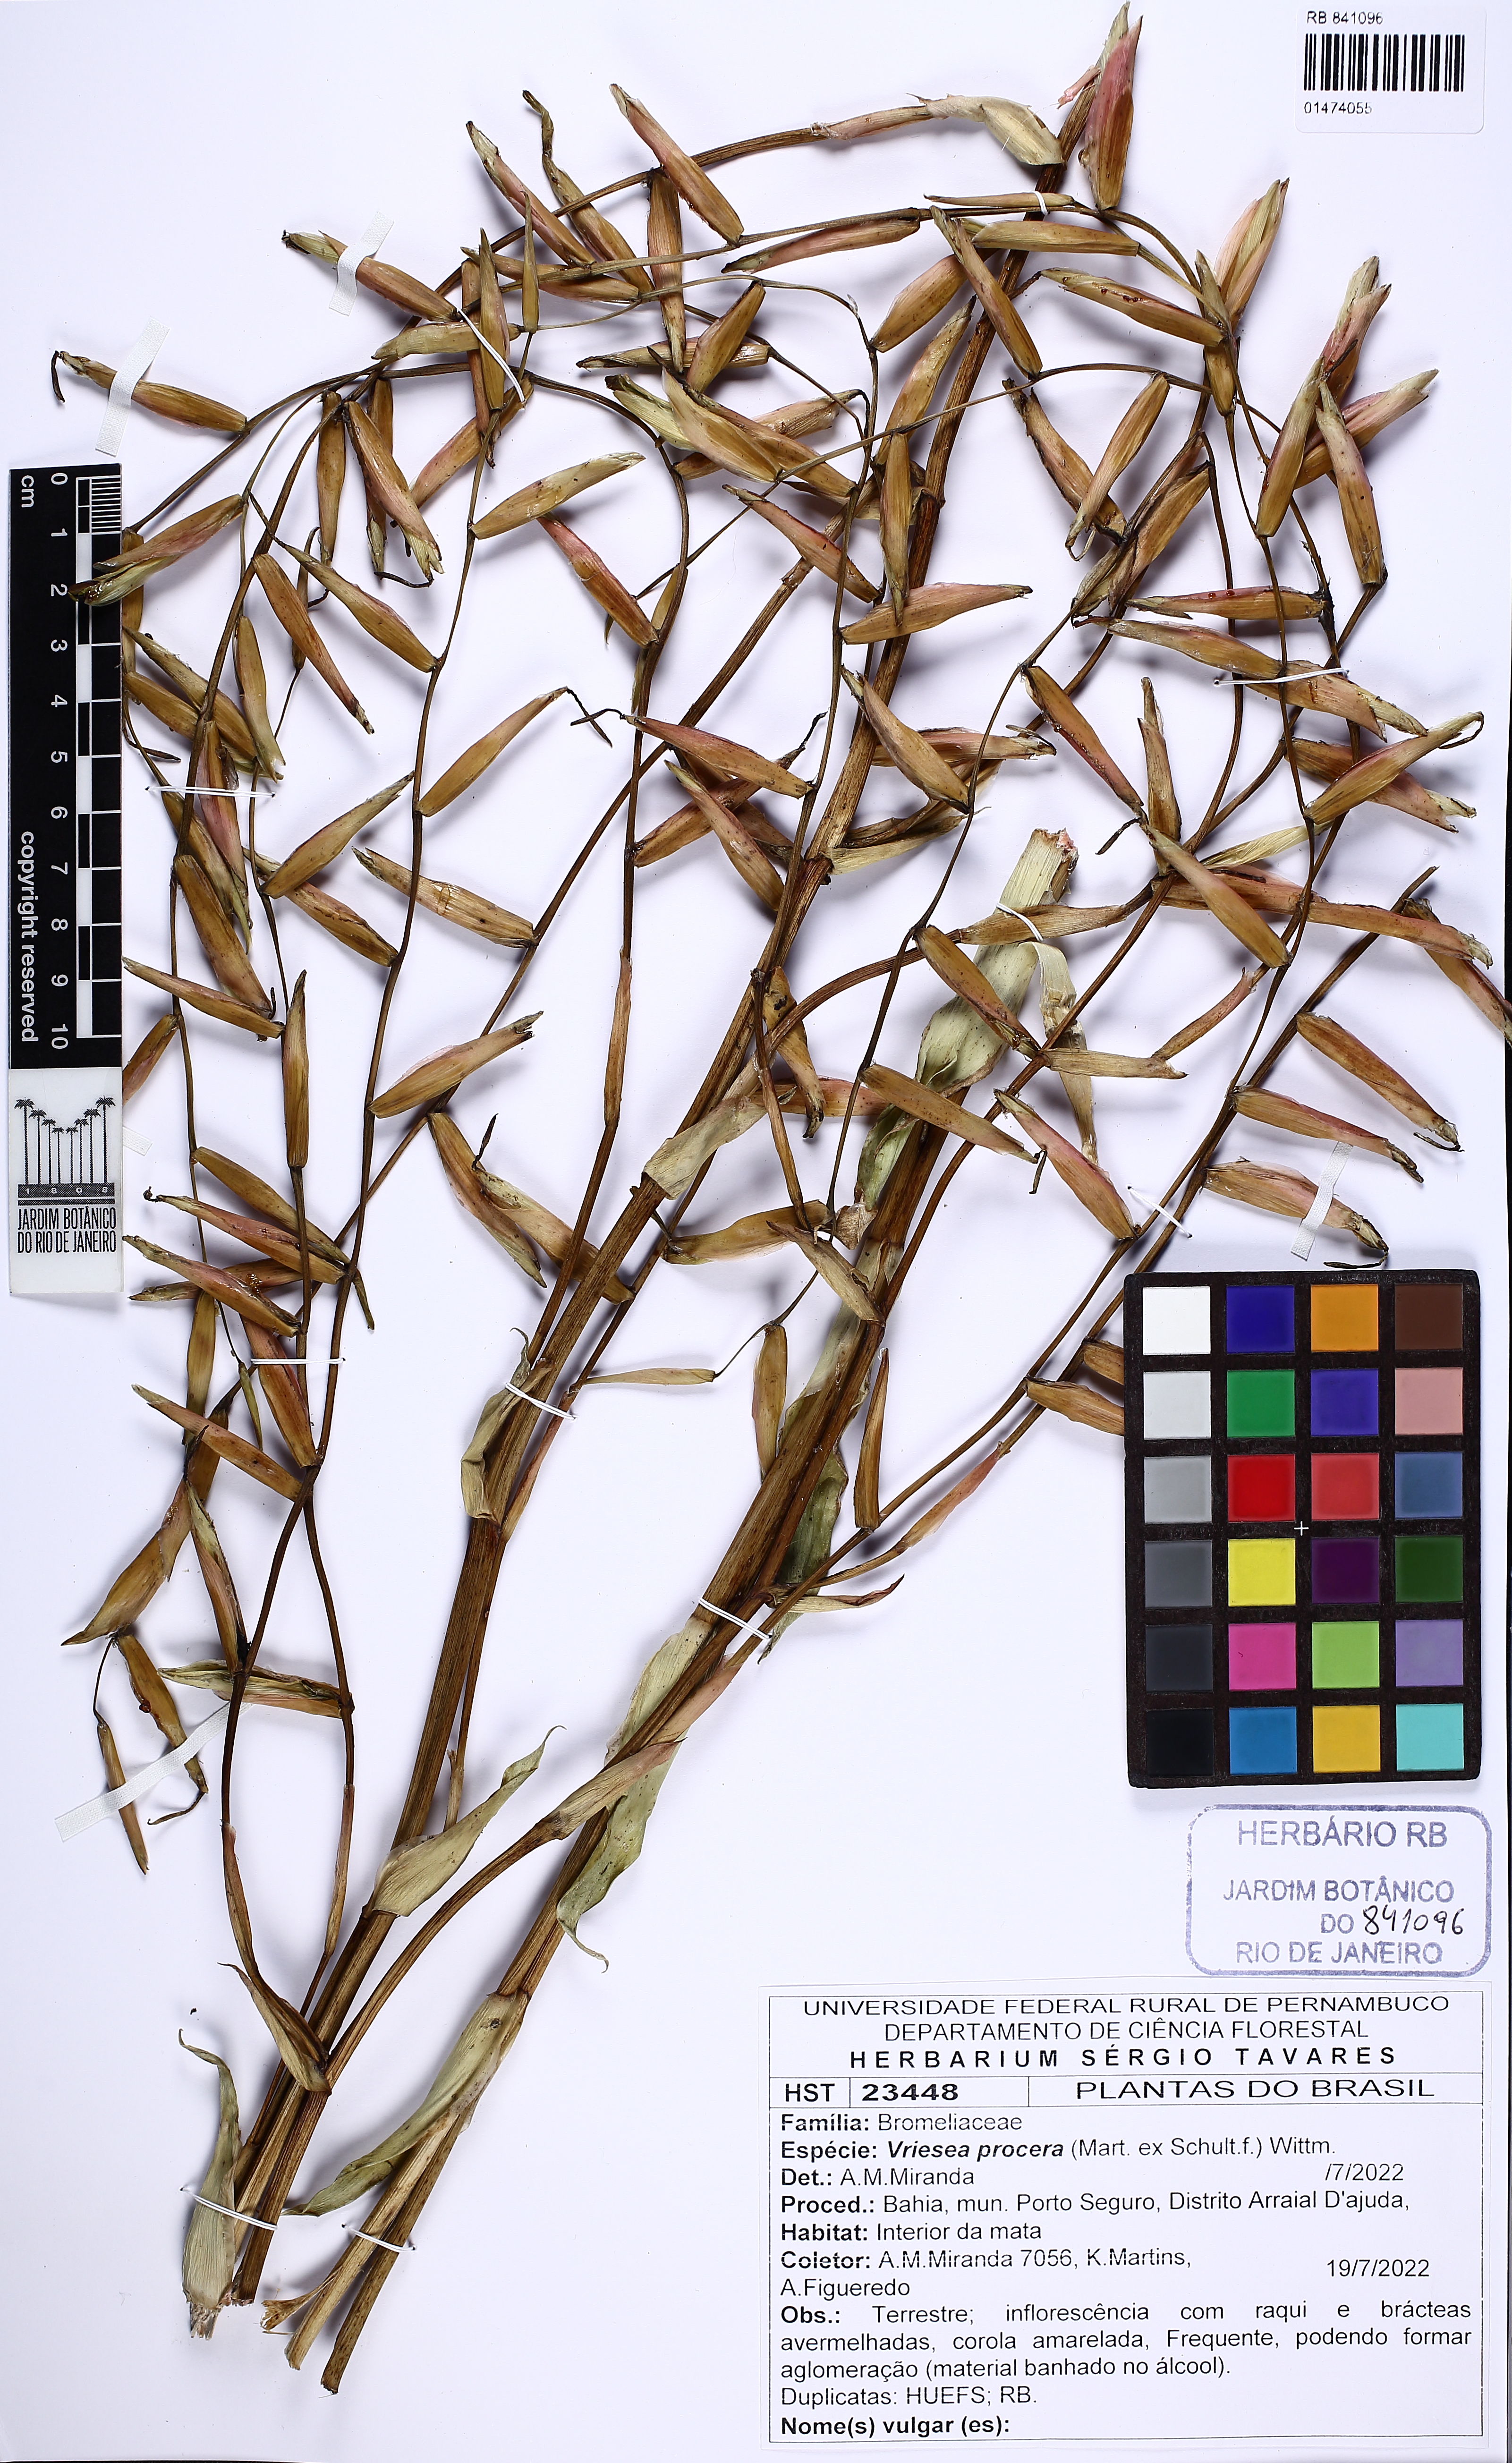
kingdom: Plantae
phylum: Tracheophyta
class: Liliopsida
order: Poales
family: Bromeliaceae
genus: Vriesea
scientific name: Vriesea procera
